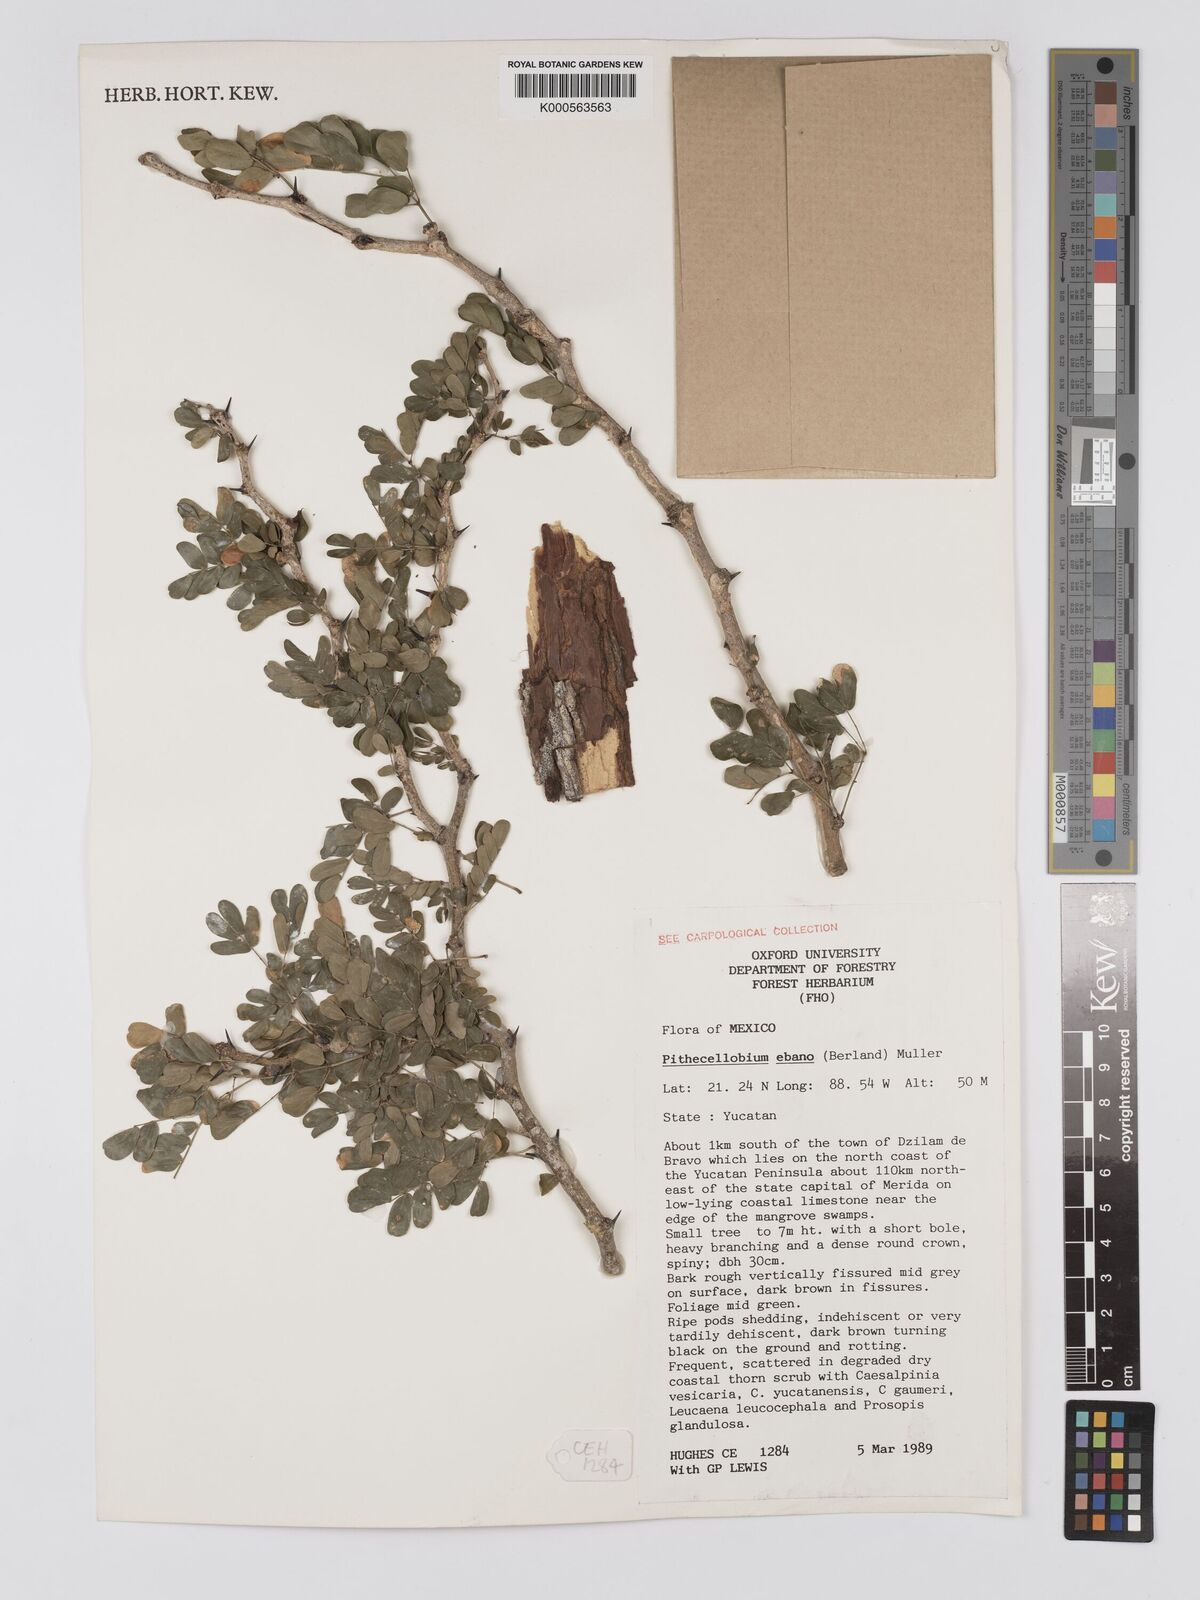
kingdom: Plantae
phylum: Tracheophyta
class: Magnoliopsida
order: Fabales
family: Fabaceae
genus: Ebenopsis
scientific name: Ebenopsis ebano
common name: Ebony blackbead
